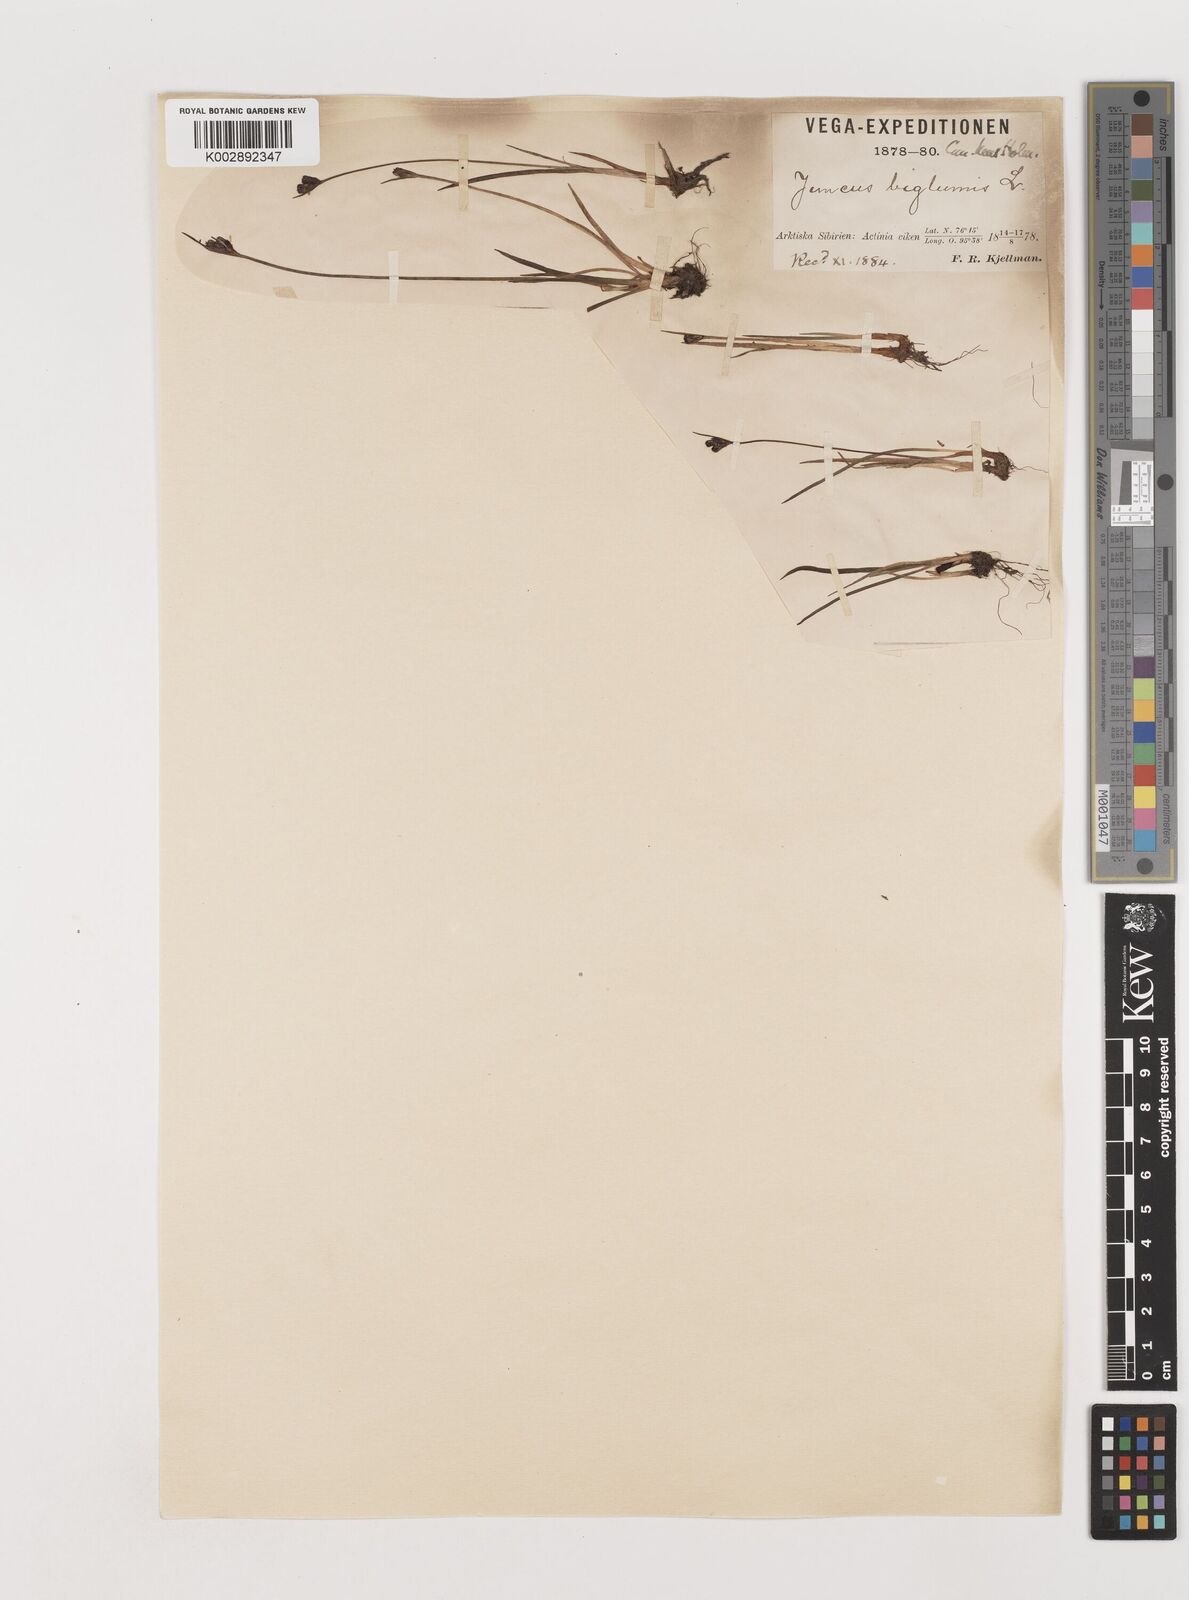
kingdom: Plantae
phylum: Tracheophyta
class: Liliopsida
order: Poales
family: Juncaceae
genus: Juncus
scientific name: Juncus biglumis
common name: Two-flowered rush
